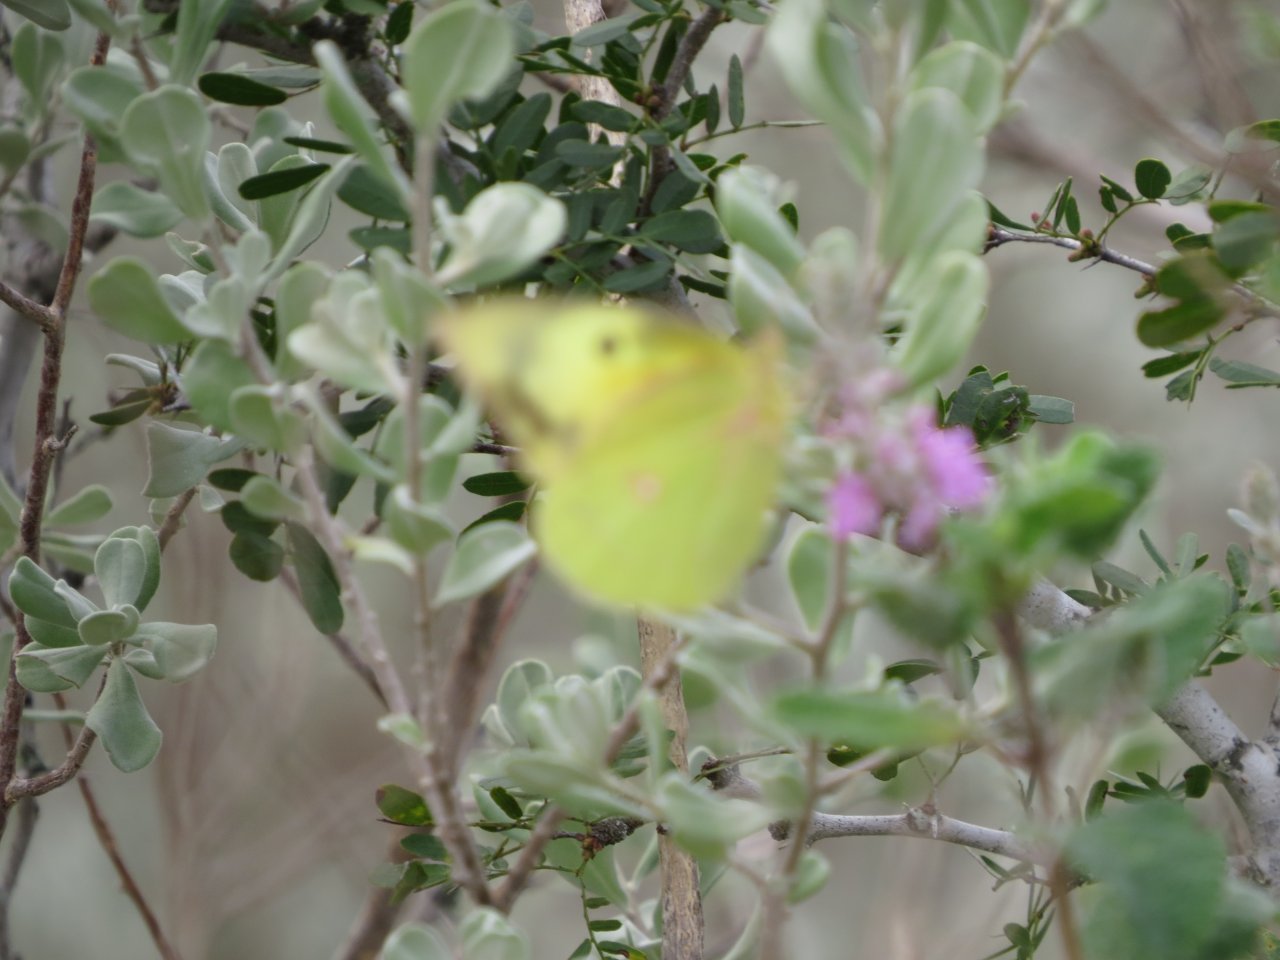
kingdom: Animalia
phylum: Arthropoda
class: Insecta
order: Lepidoptera
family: Pieridae
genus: Zerene
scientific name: Zerene cesonia
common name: Southern Dogface
